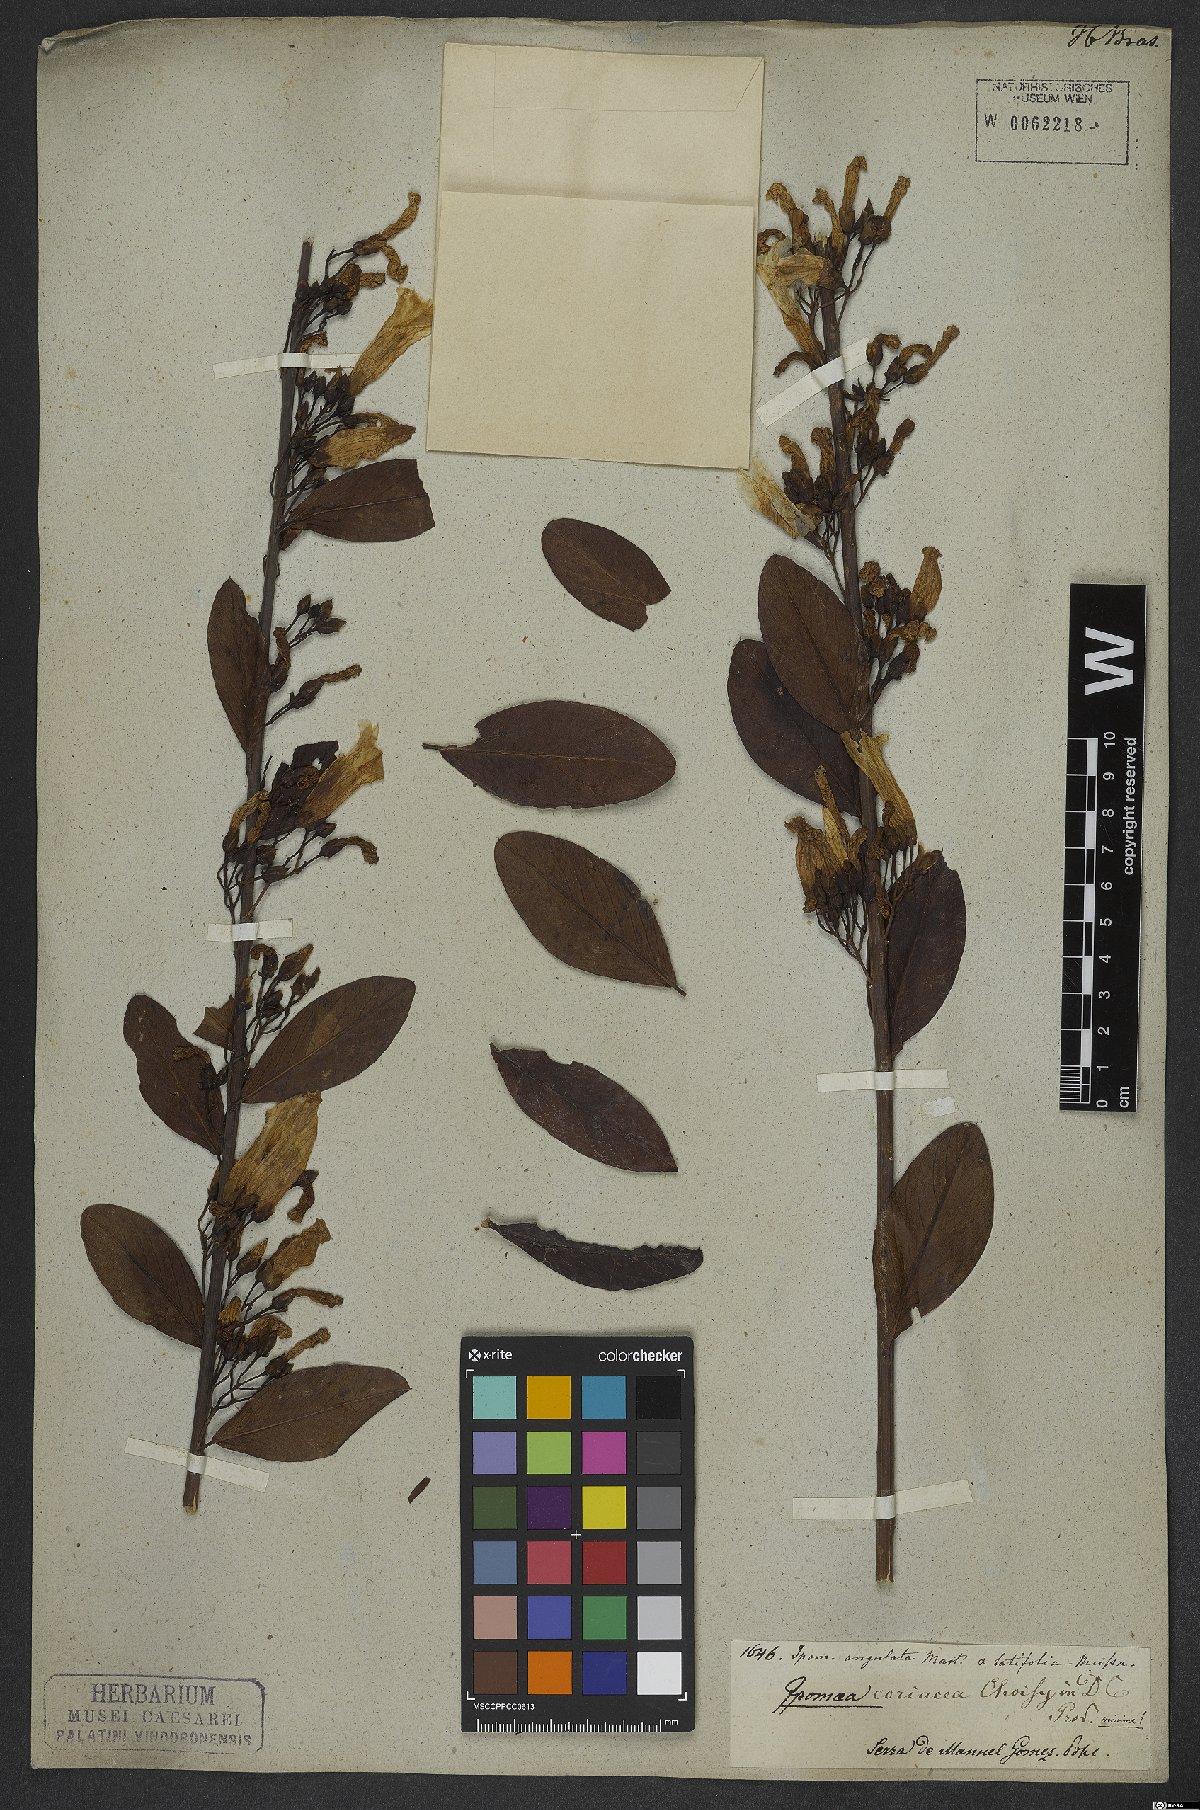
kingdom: Plantae
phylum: Tracheophyta
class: Magnoliopsida
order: Solanales
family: Convolvulaceae
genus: Ipomoea
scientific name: Ipomoea hederifolia
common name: Ivy-leaf morning-glory
